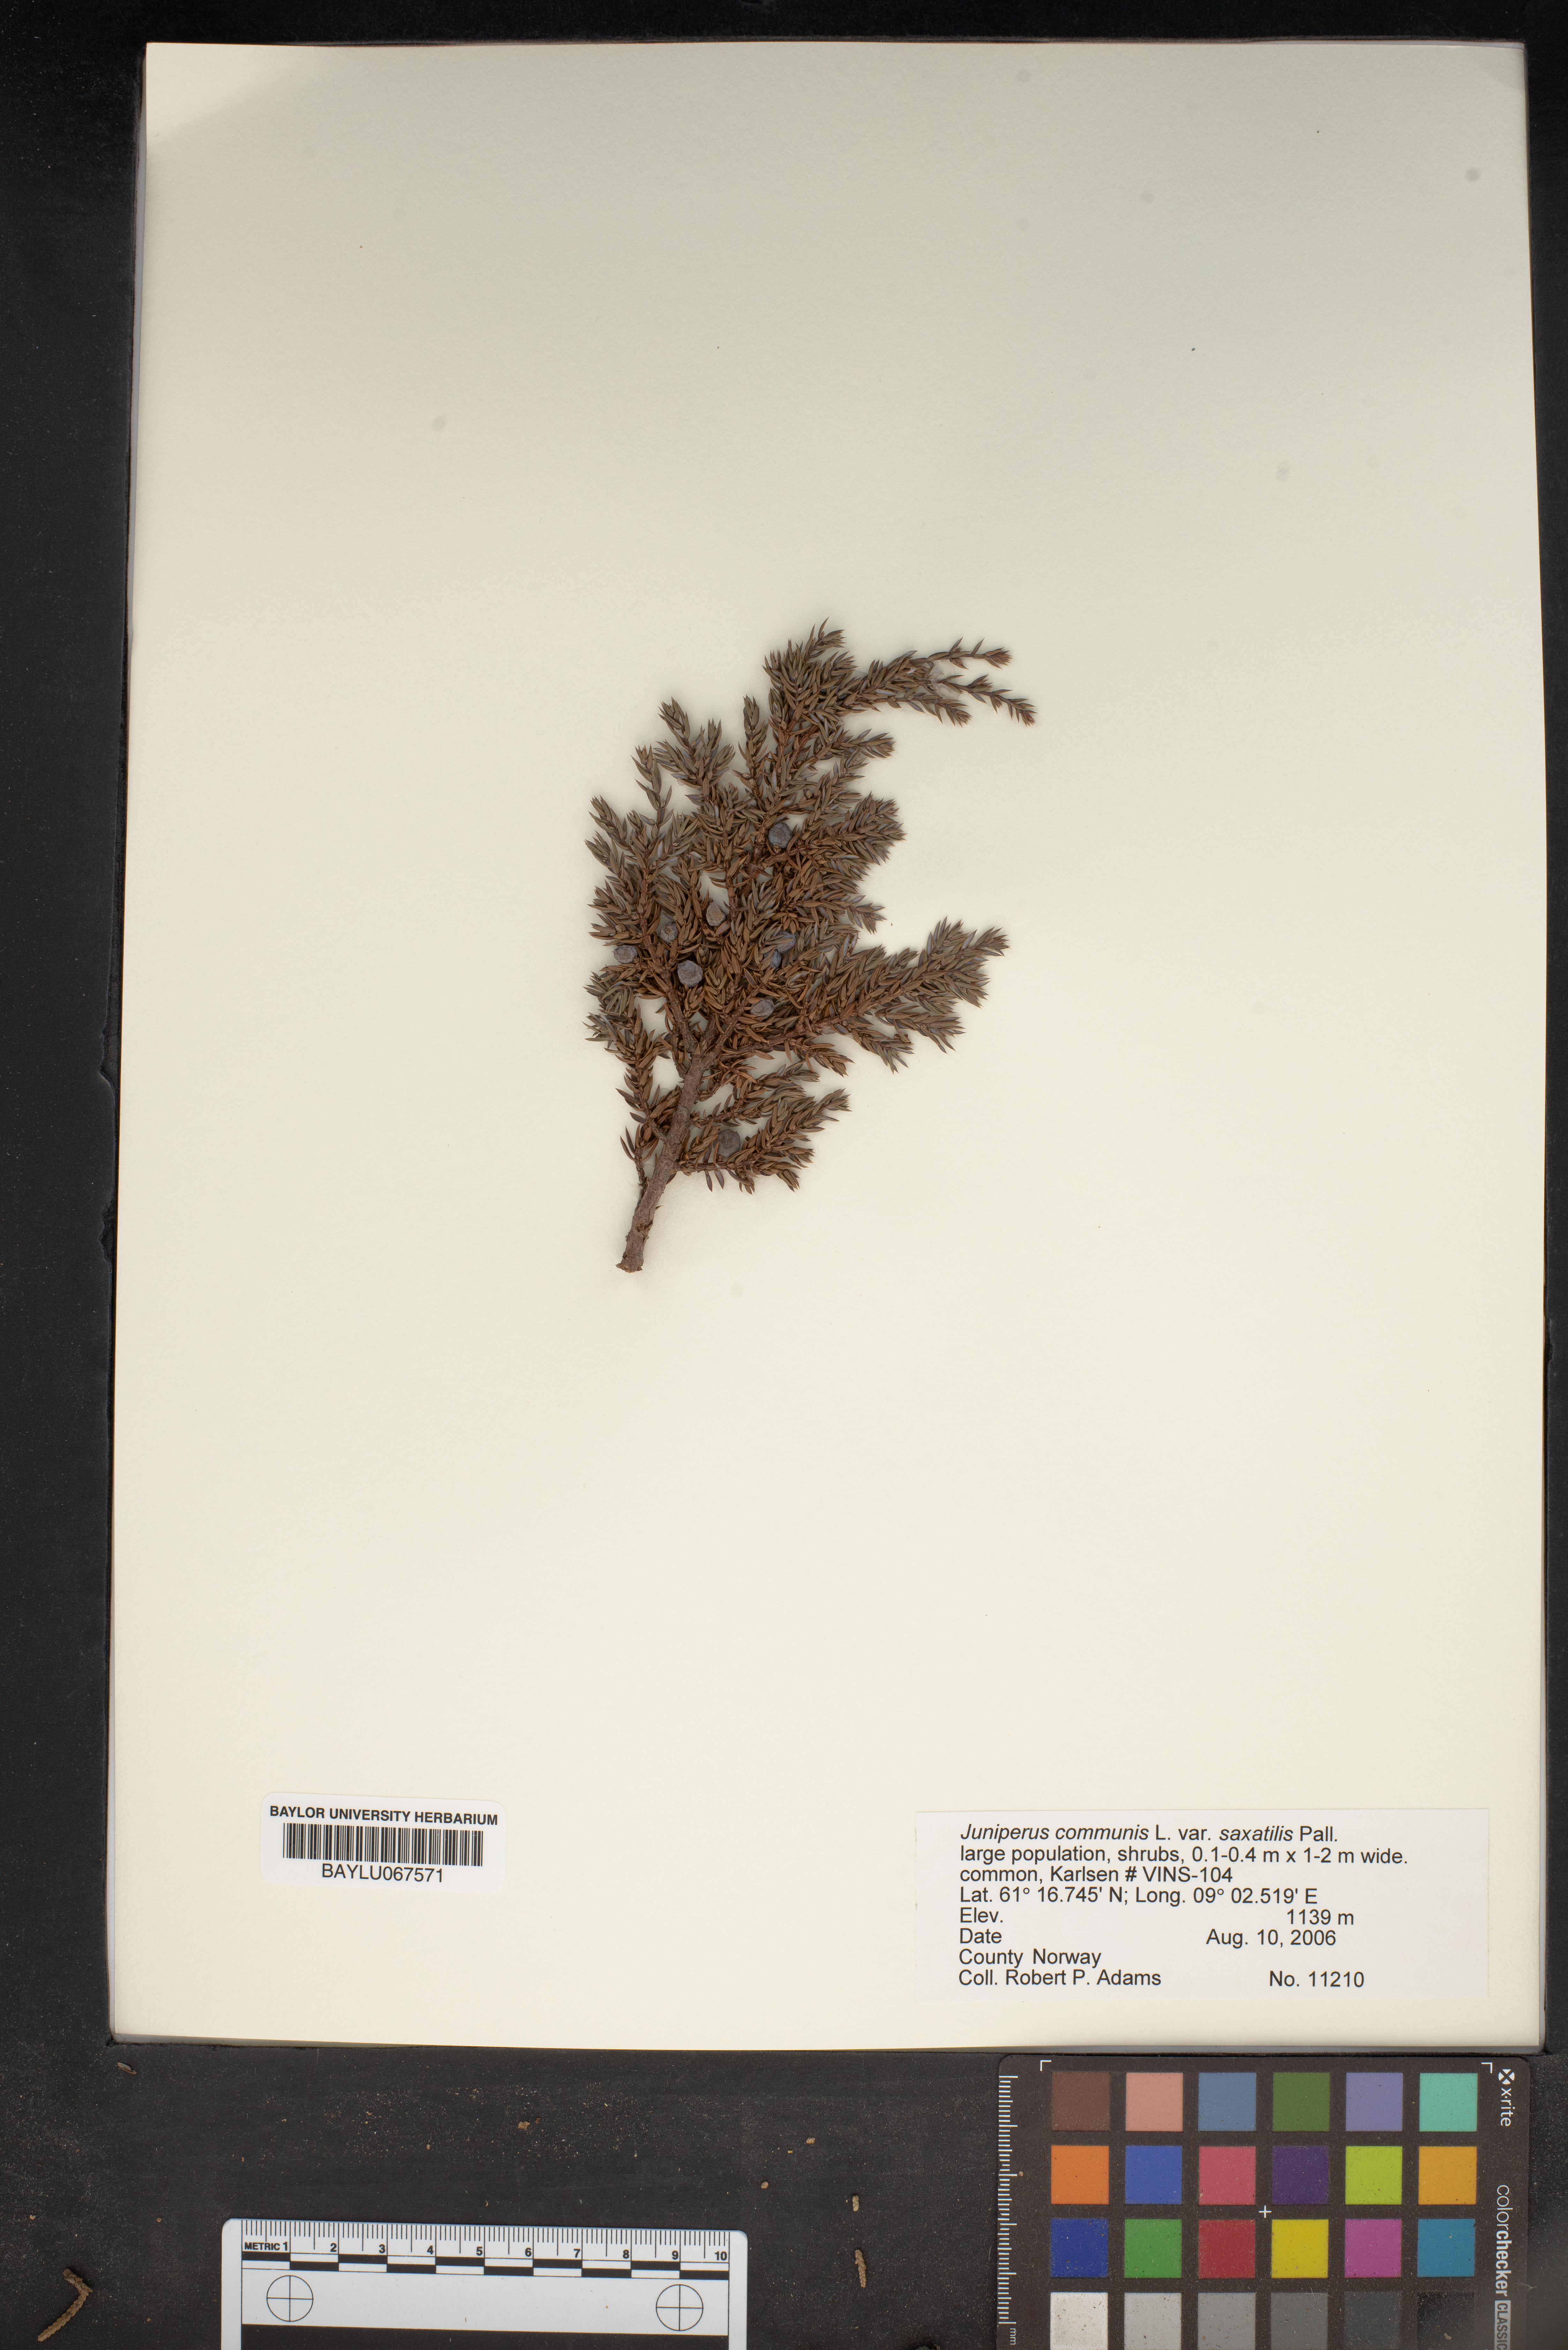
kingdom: Plantae
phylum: Tracheophyta
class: Pinopsida
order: Pinales
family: Cupressaceae
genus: Juniperus
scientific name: Juniperus communis
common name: Common juniper
